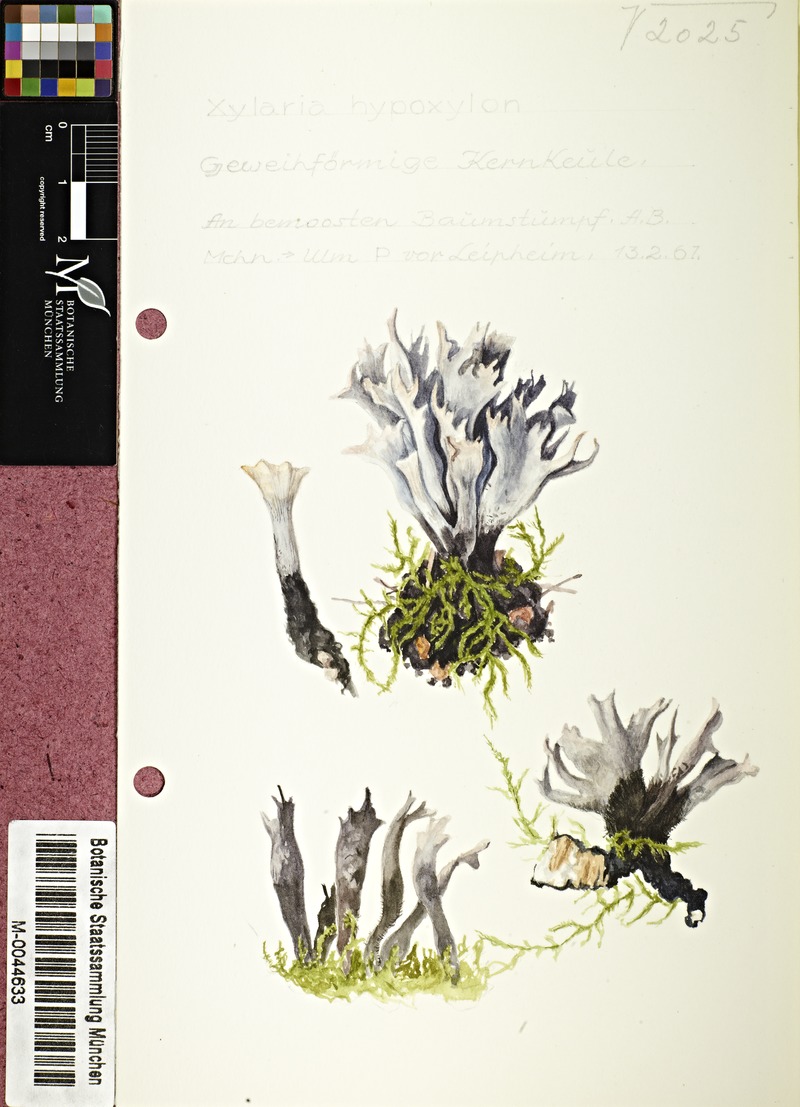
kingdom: Fungi
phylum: Ascomycota
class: Sordariomycetes
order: Xylariales
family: Xylariaceae
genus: Xylaria
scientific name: Xylaria hypoxylon
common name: Candle-snuff fungus
